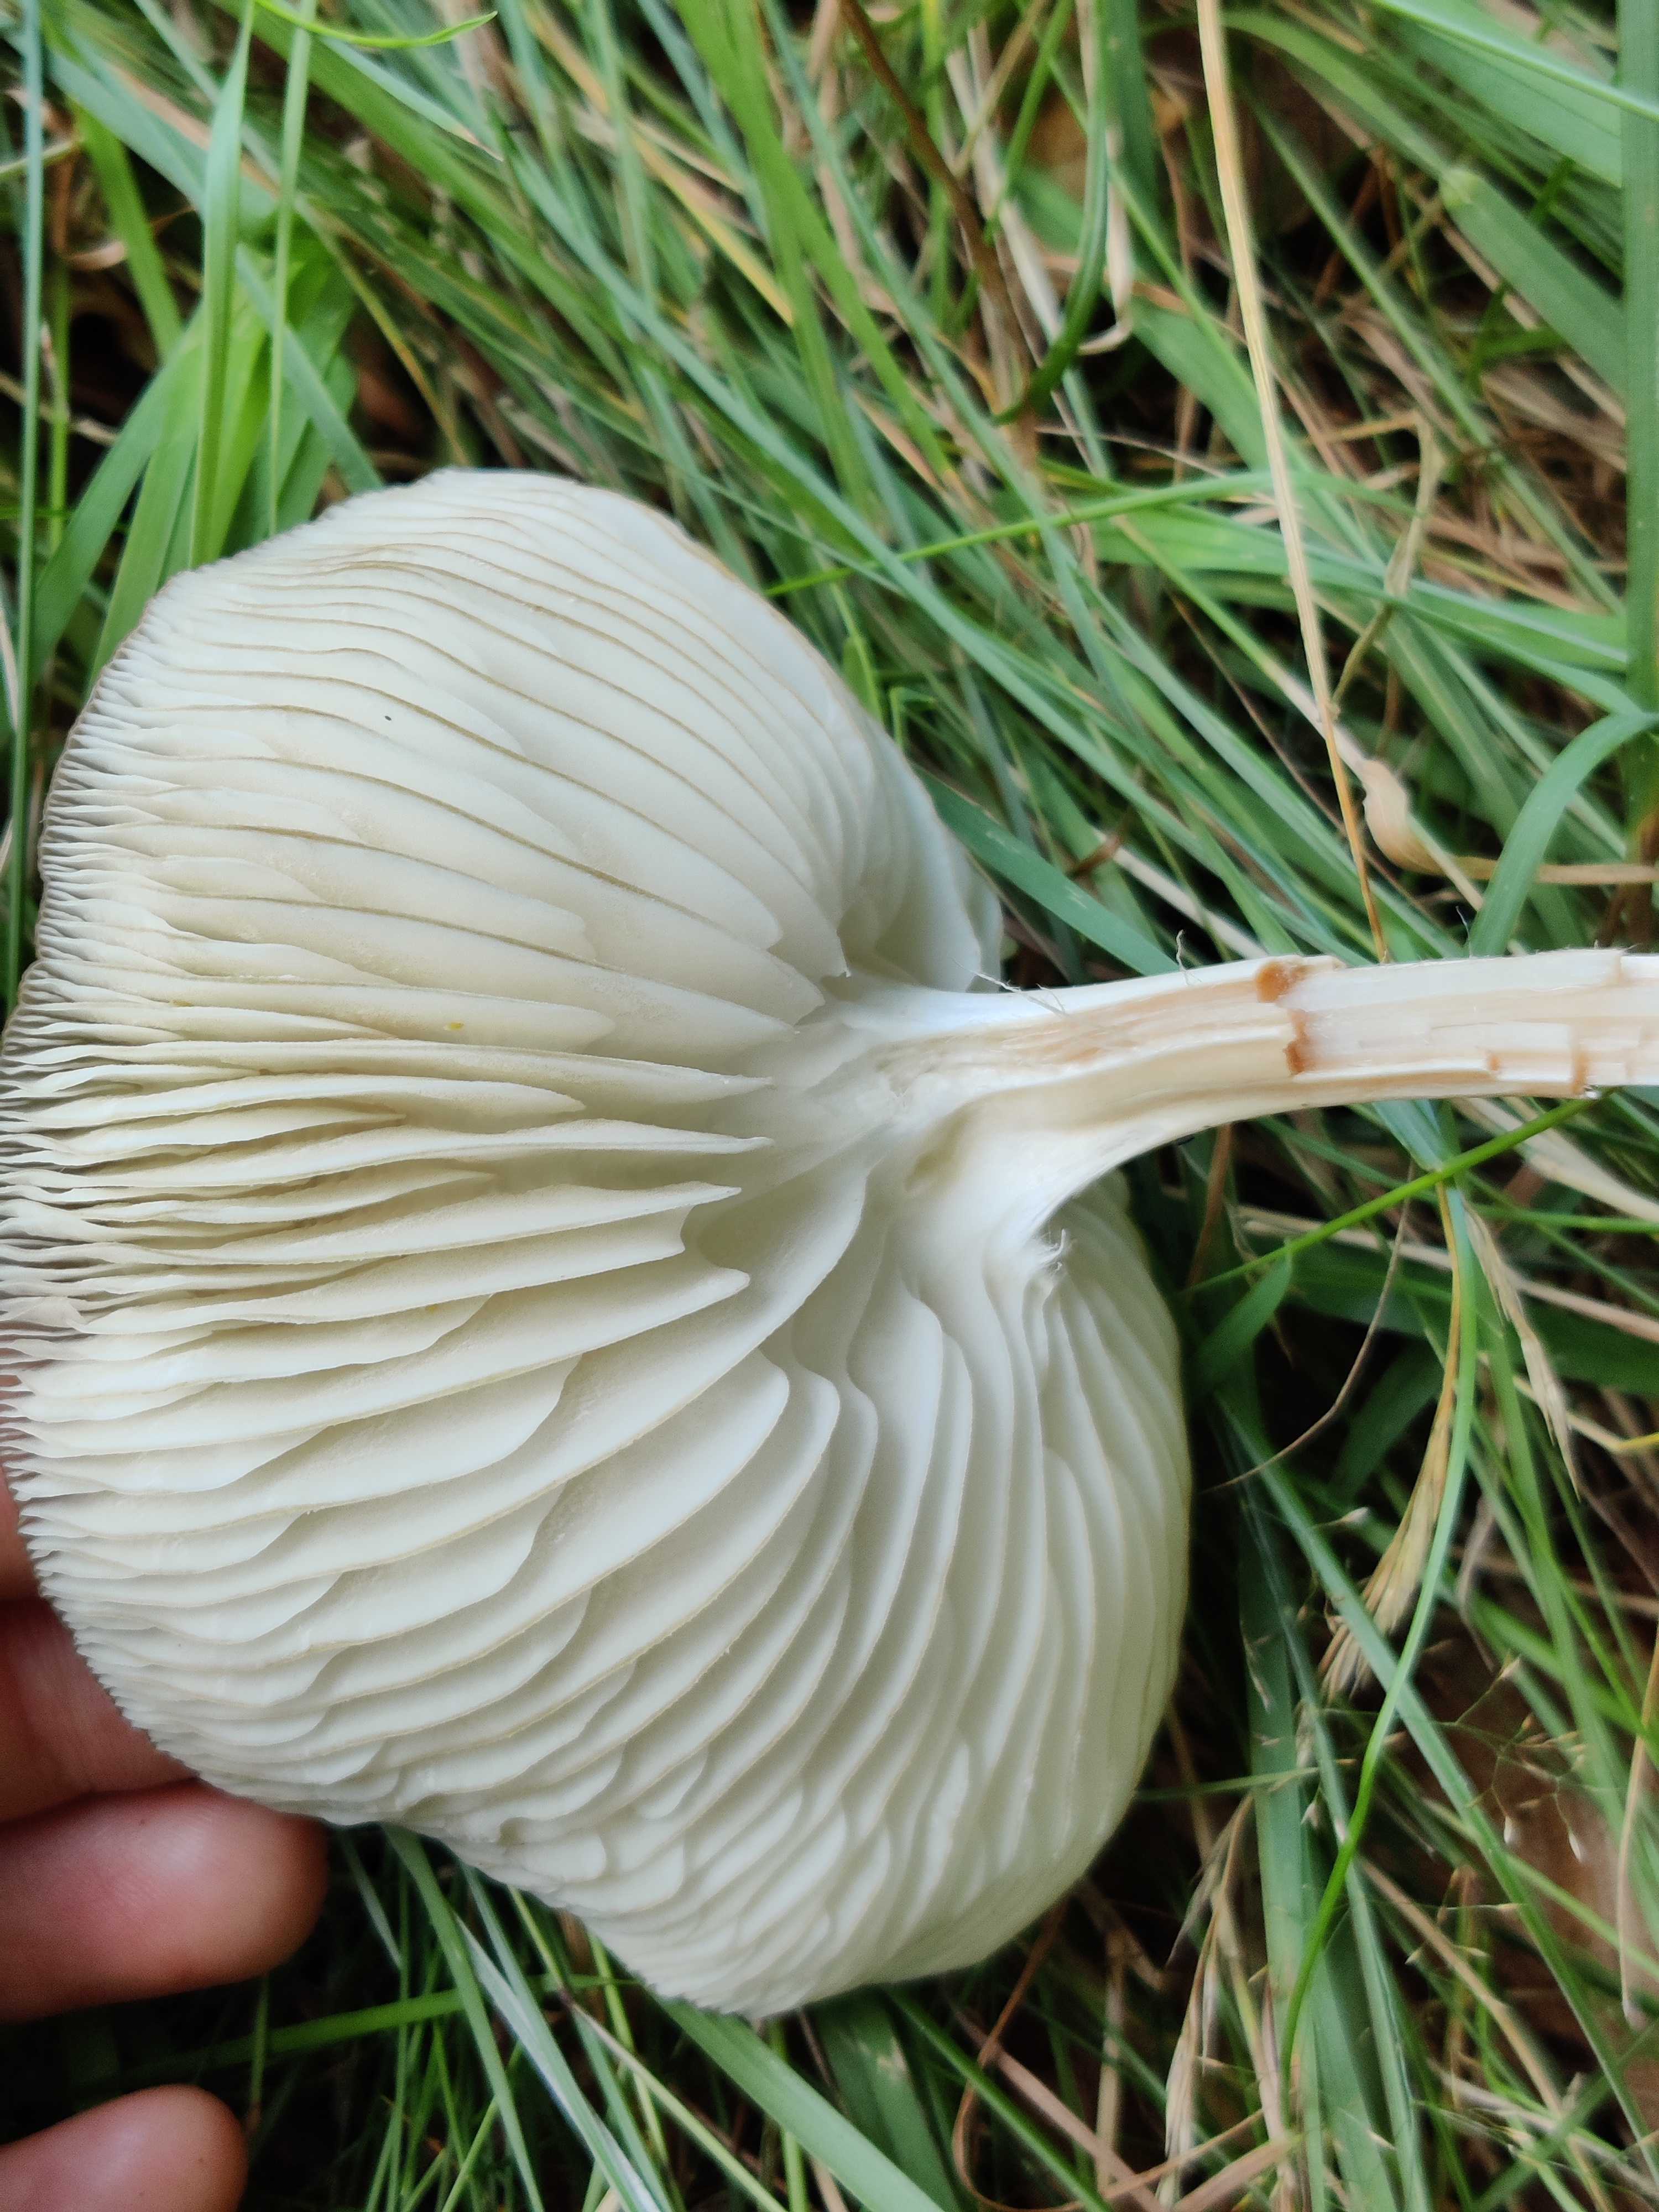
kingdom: Fungi
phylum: Basidiomycota
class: Agaricomycetes
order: Agaricales
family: Physalacriaceae
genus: Hymenopellis
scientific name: Hymenopellis radicata
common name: almindelig pælerodshat
